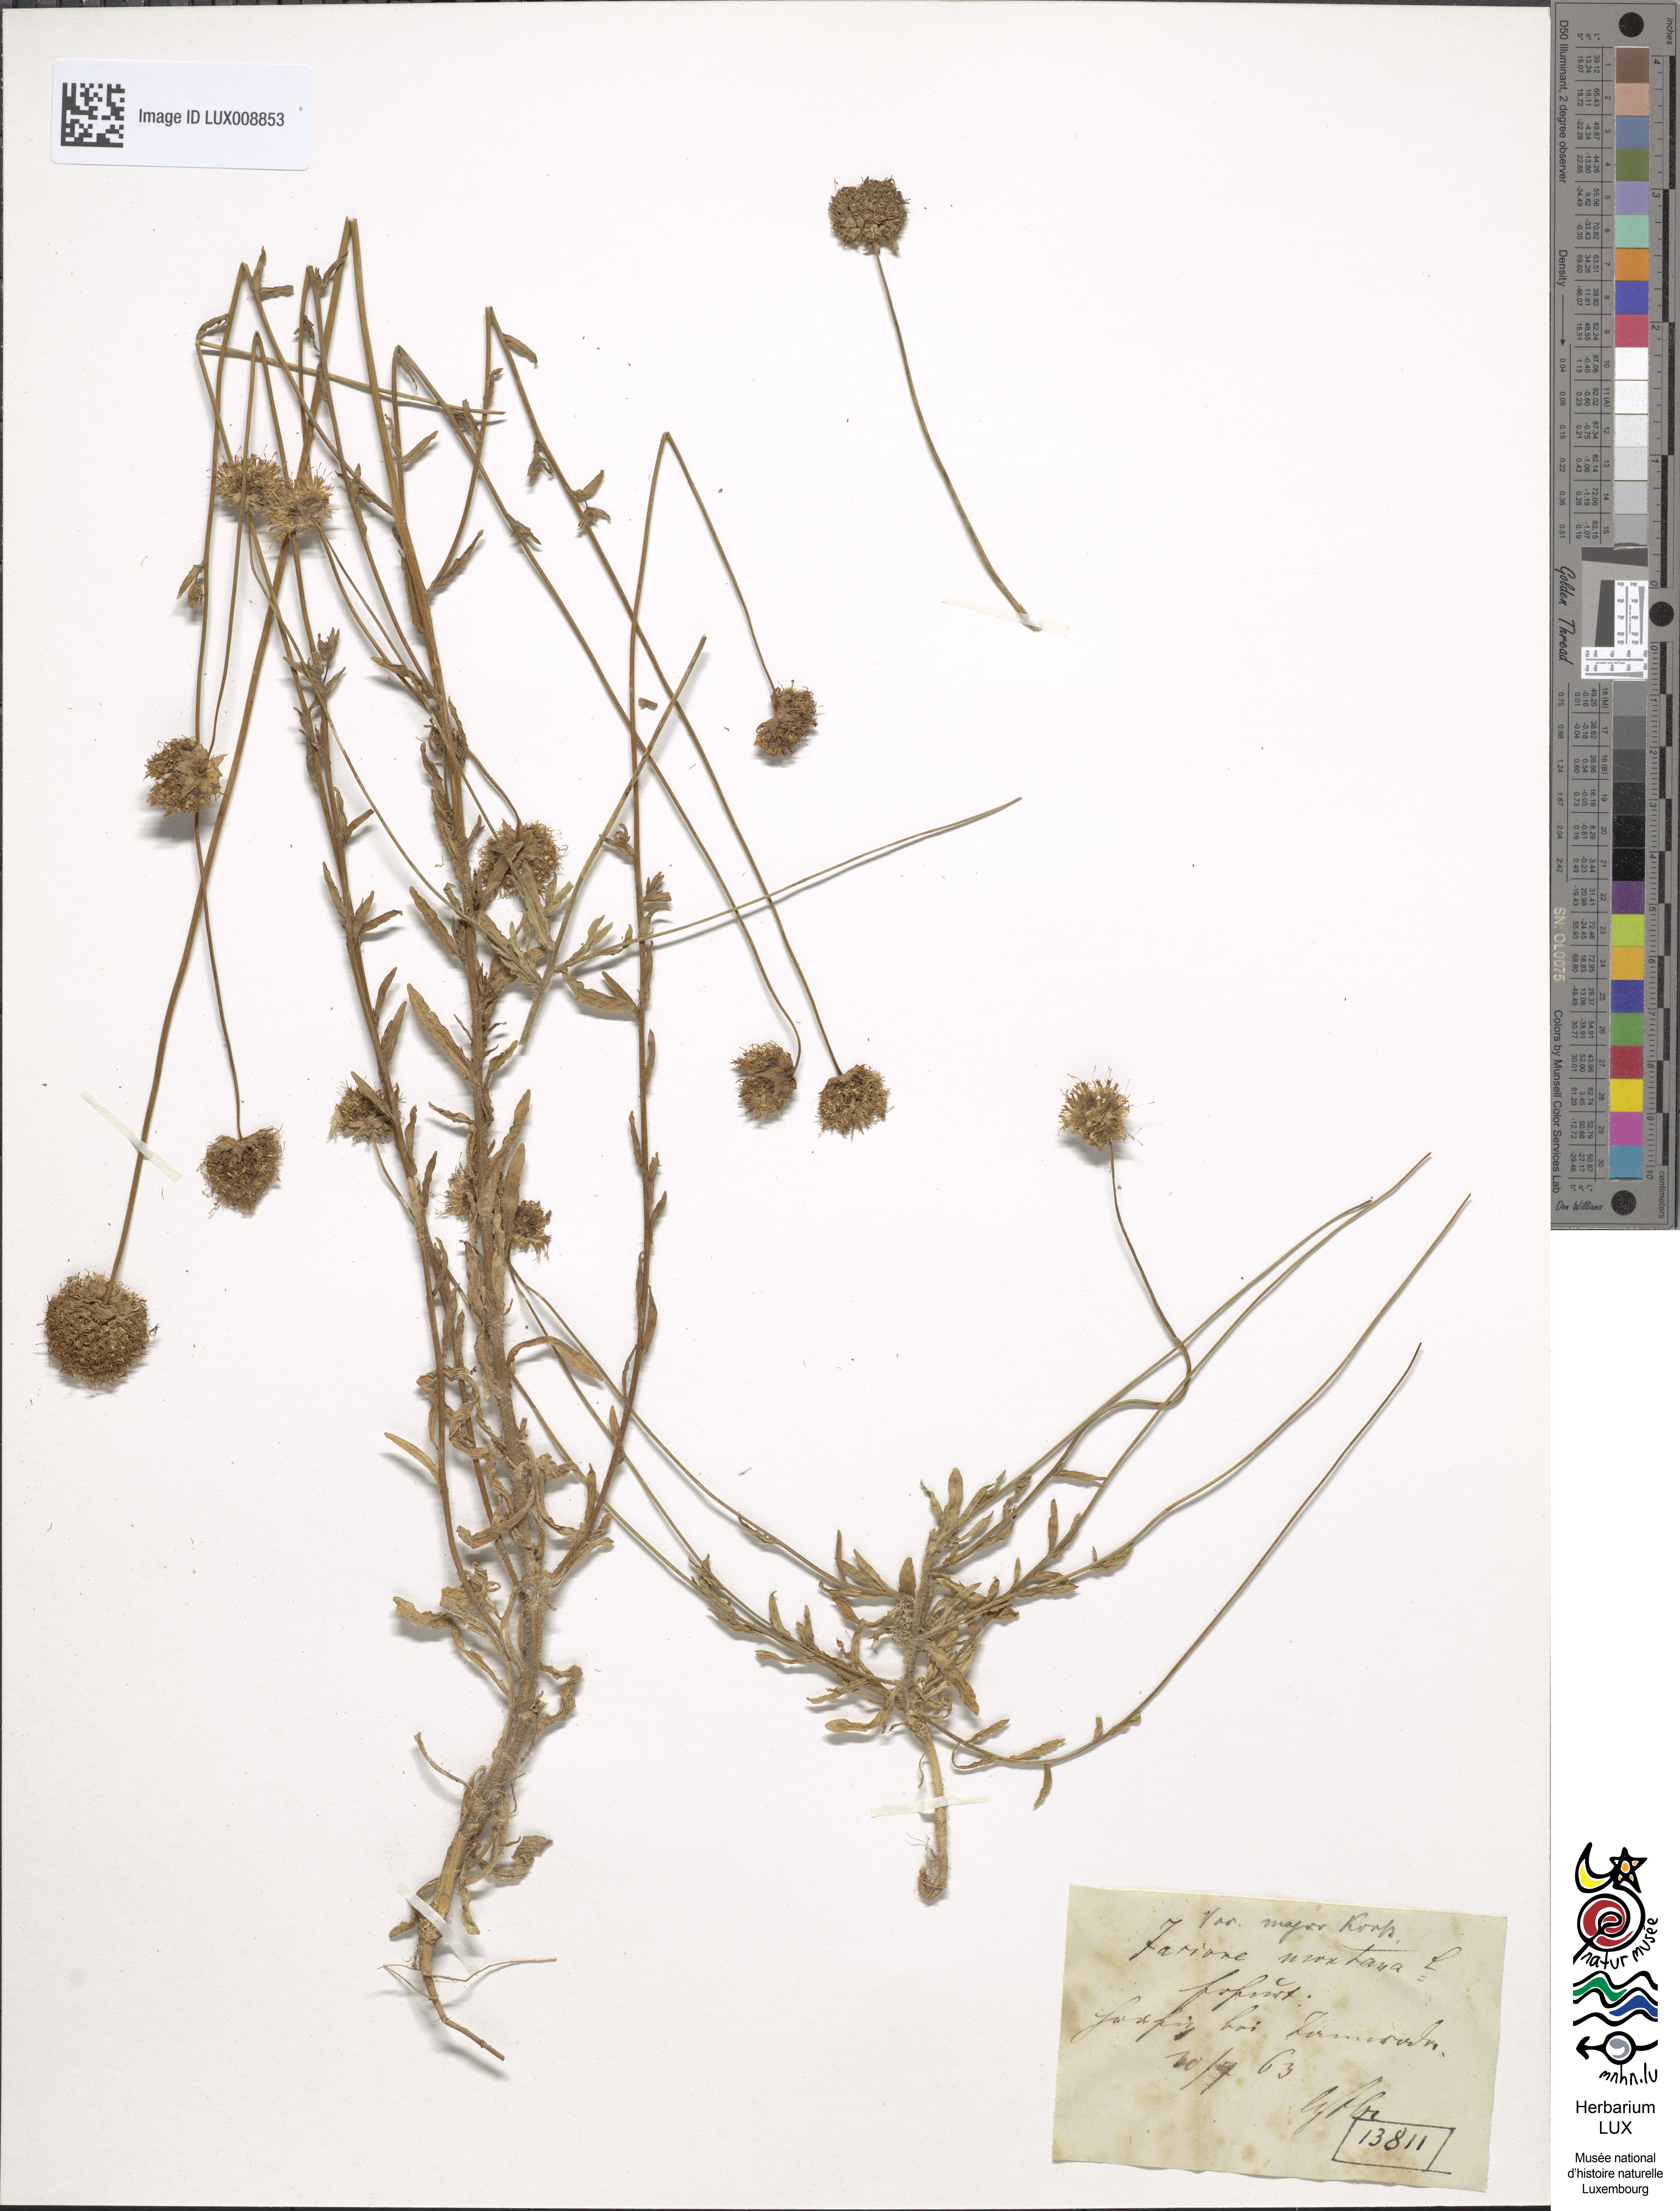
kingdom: Plantae
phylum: Tracheophyta
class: Magnoliopsida
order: Asterales
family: Campanulaceae
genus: Jasione
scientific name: Jasione montana
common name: Sheep's-bit
